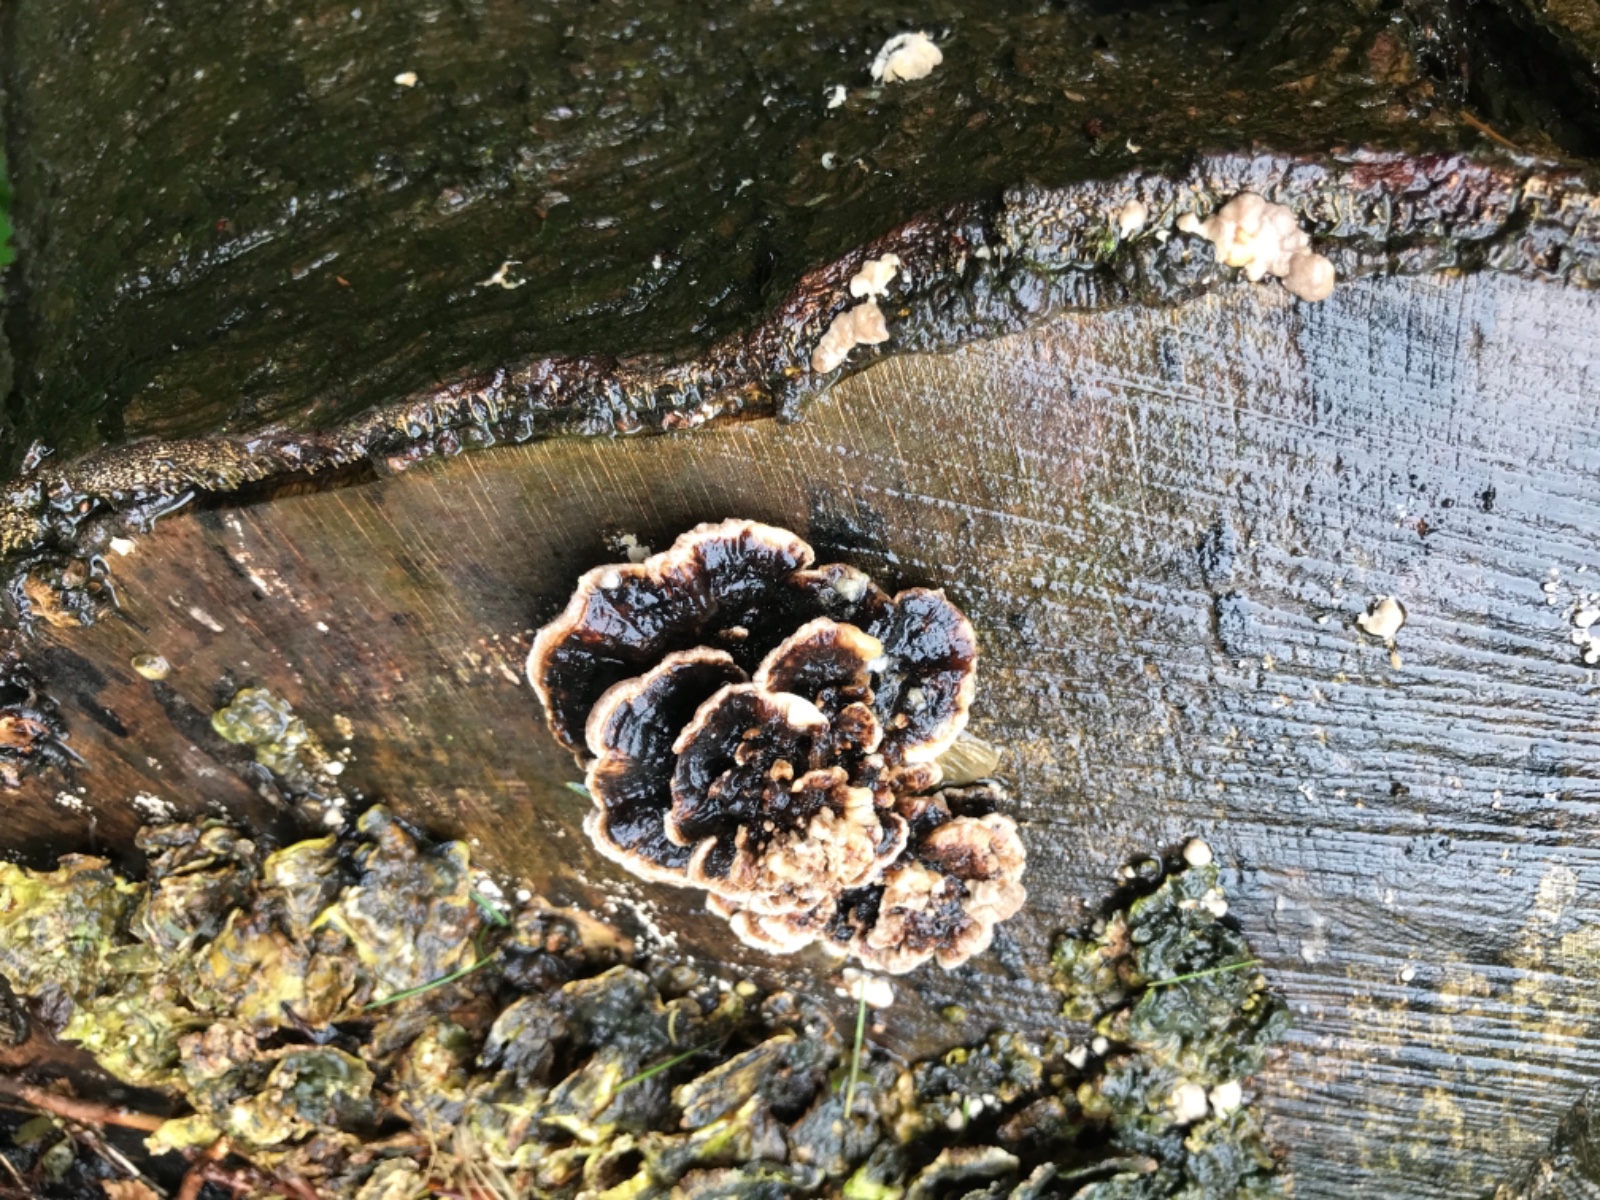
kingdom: Fungi
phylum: Basidiomycota
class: Agaricomycetes
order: Polyporales
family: Polyporaceae
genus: Trametes
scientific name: Trametes versicolor
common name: broget læderporesvamp
